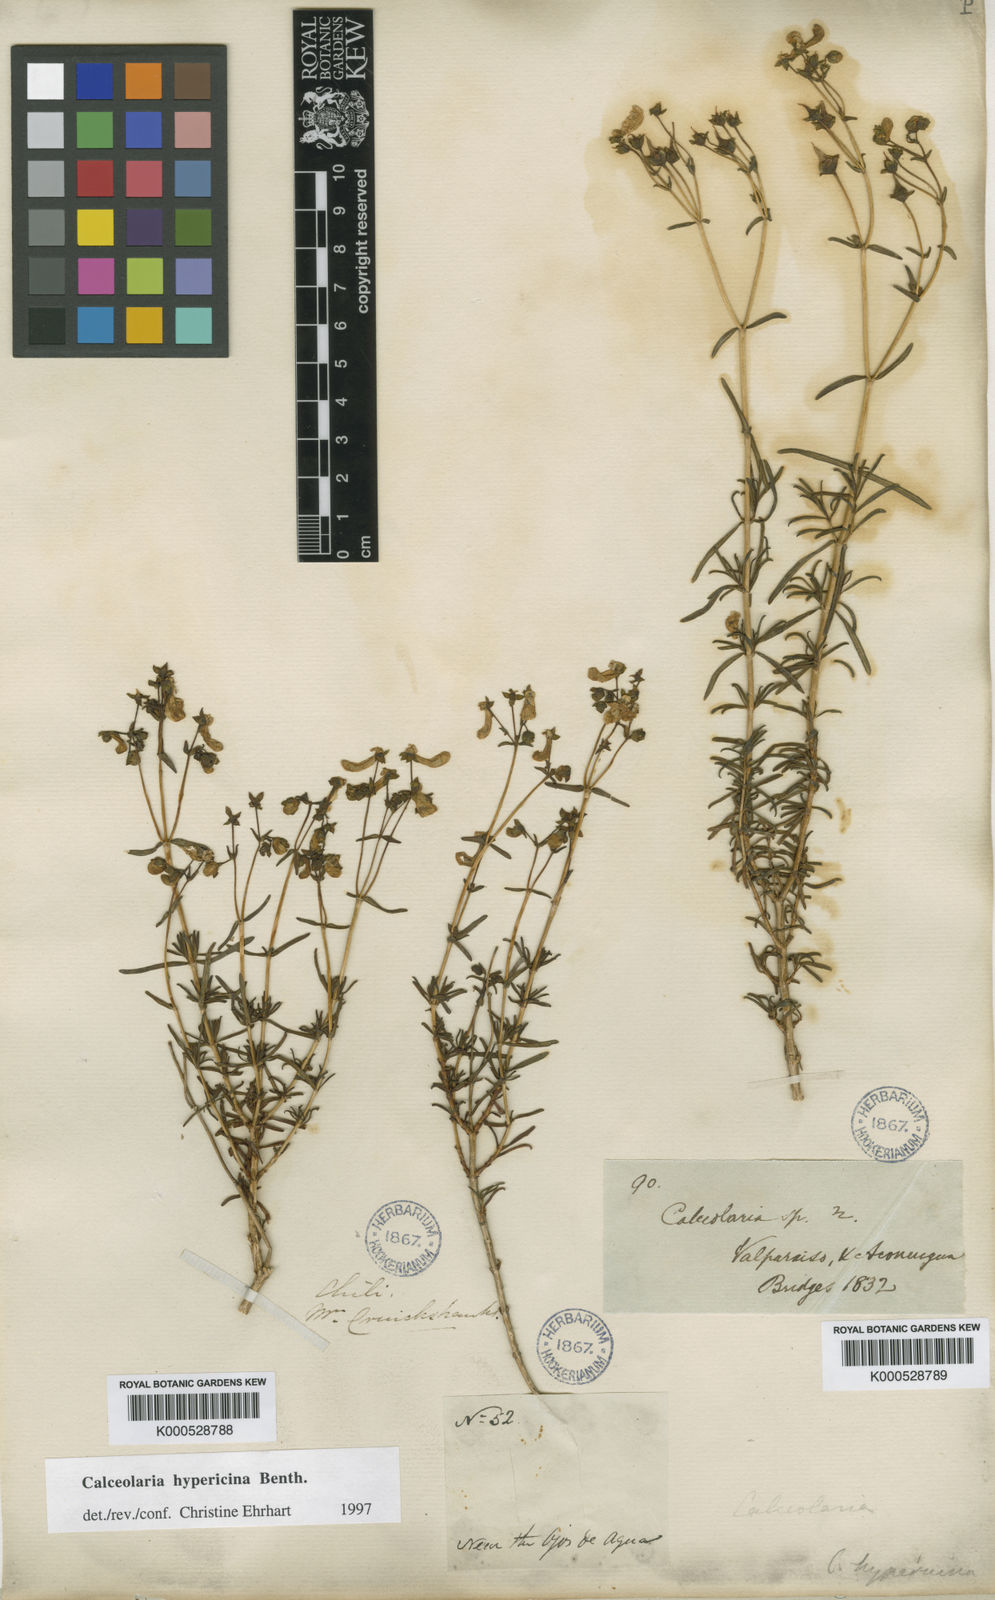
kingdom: Plantae
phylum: Tracheophyta
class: Magnoliopsida
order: Lamiales
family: Calceolariaceae
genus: Calceolaria
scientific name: Calceolaria hypericina
